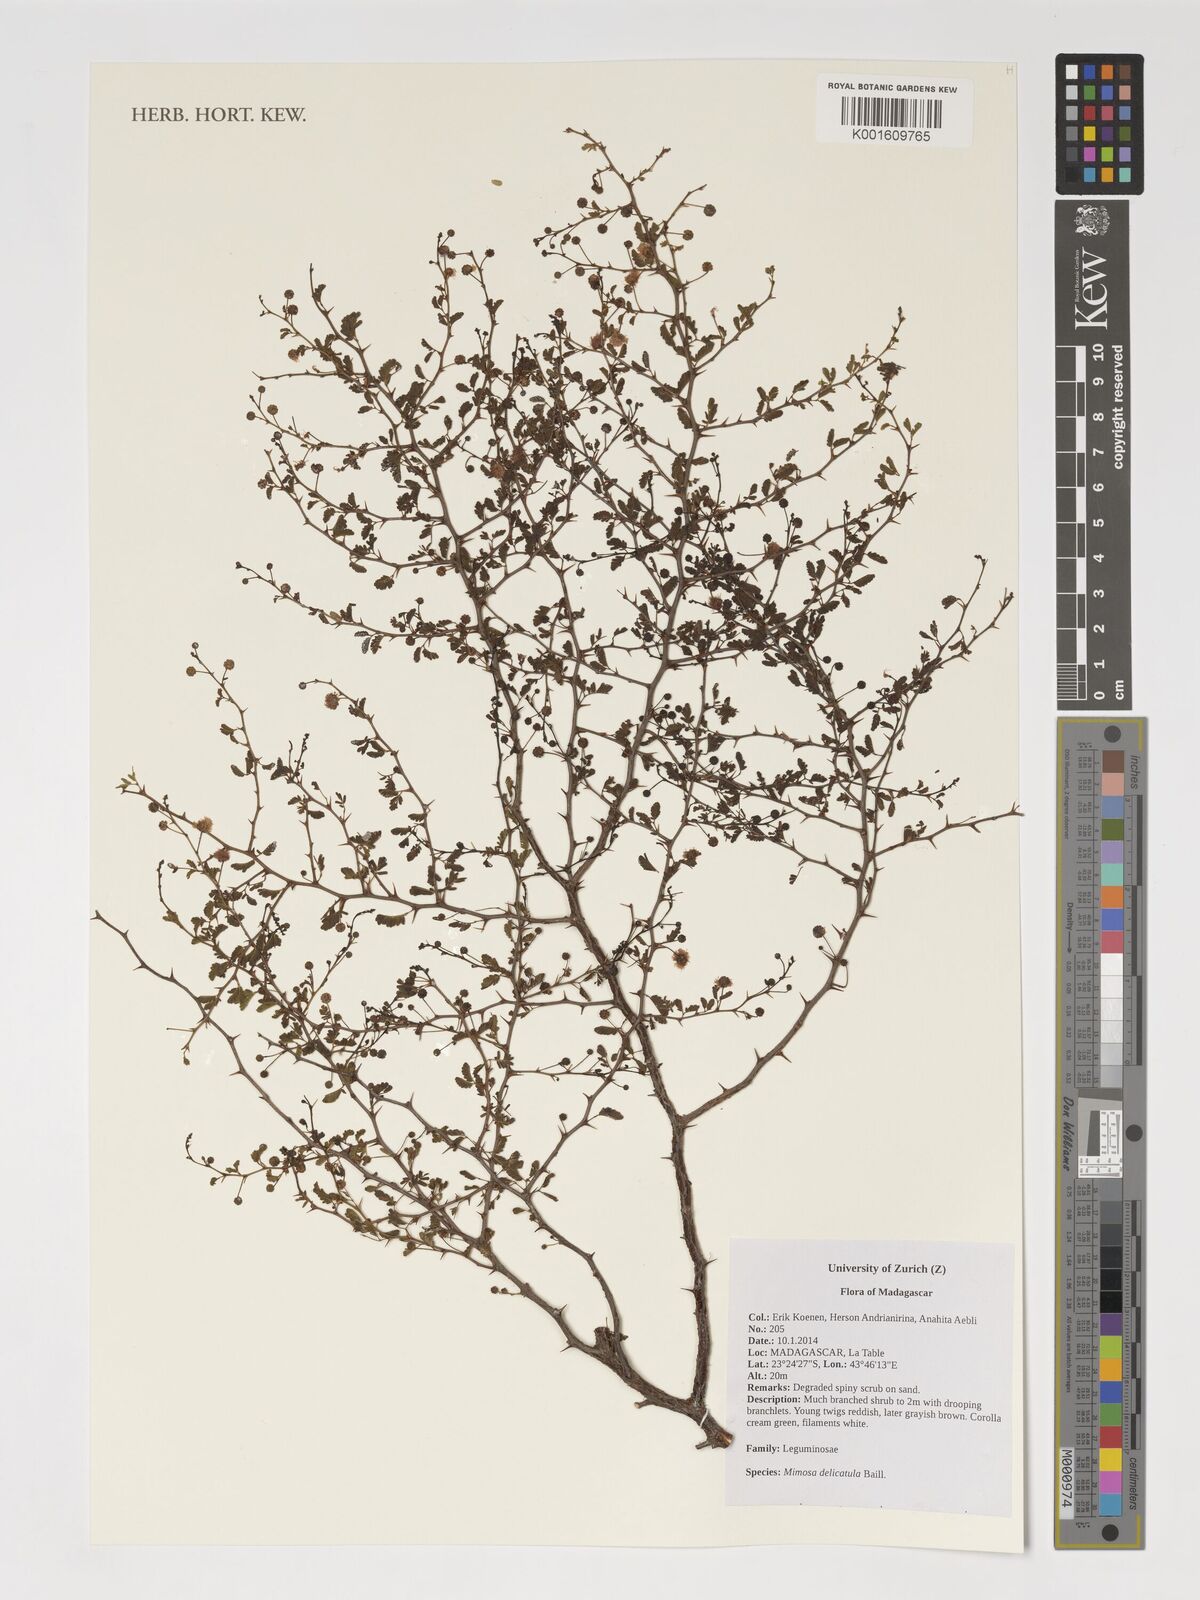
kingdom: Plantae
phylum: Tracheophyta
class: Magnoliopsida
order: Fabales
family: Fabaceae
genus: Mimosa
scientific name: Mimosa delicatula
